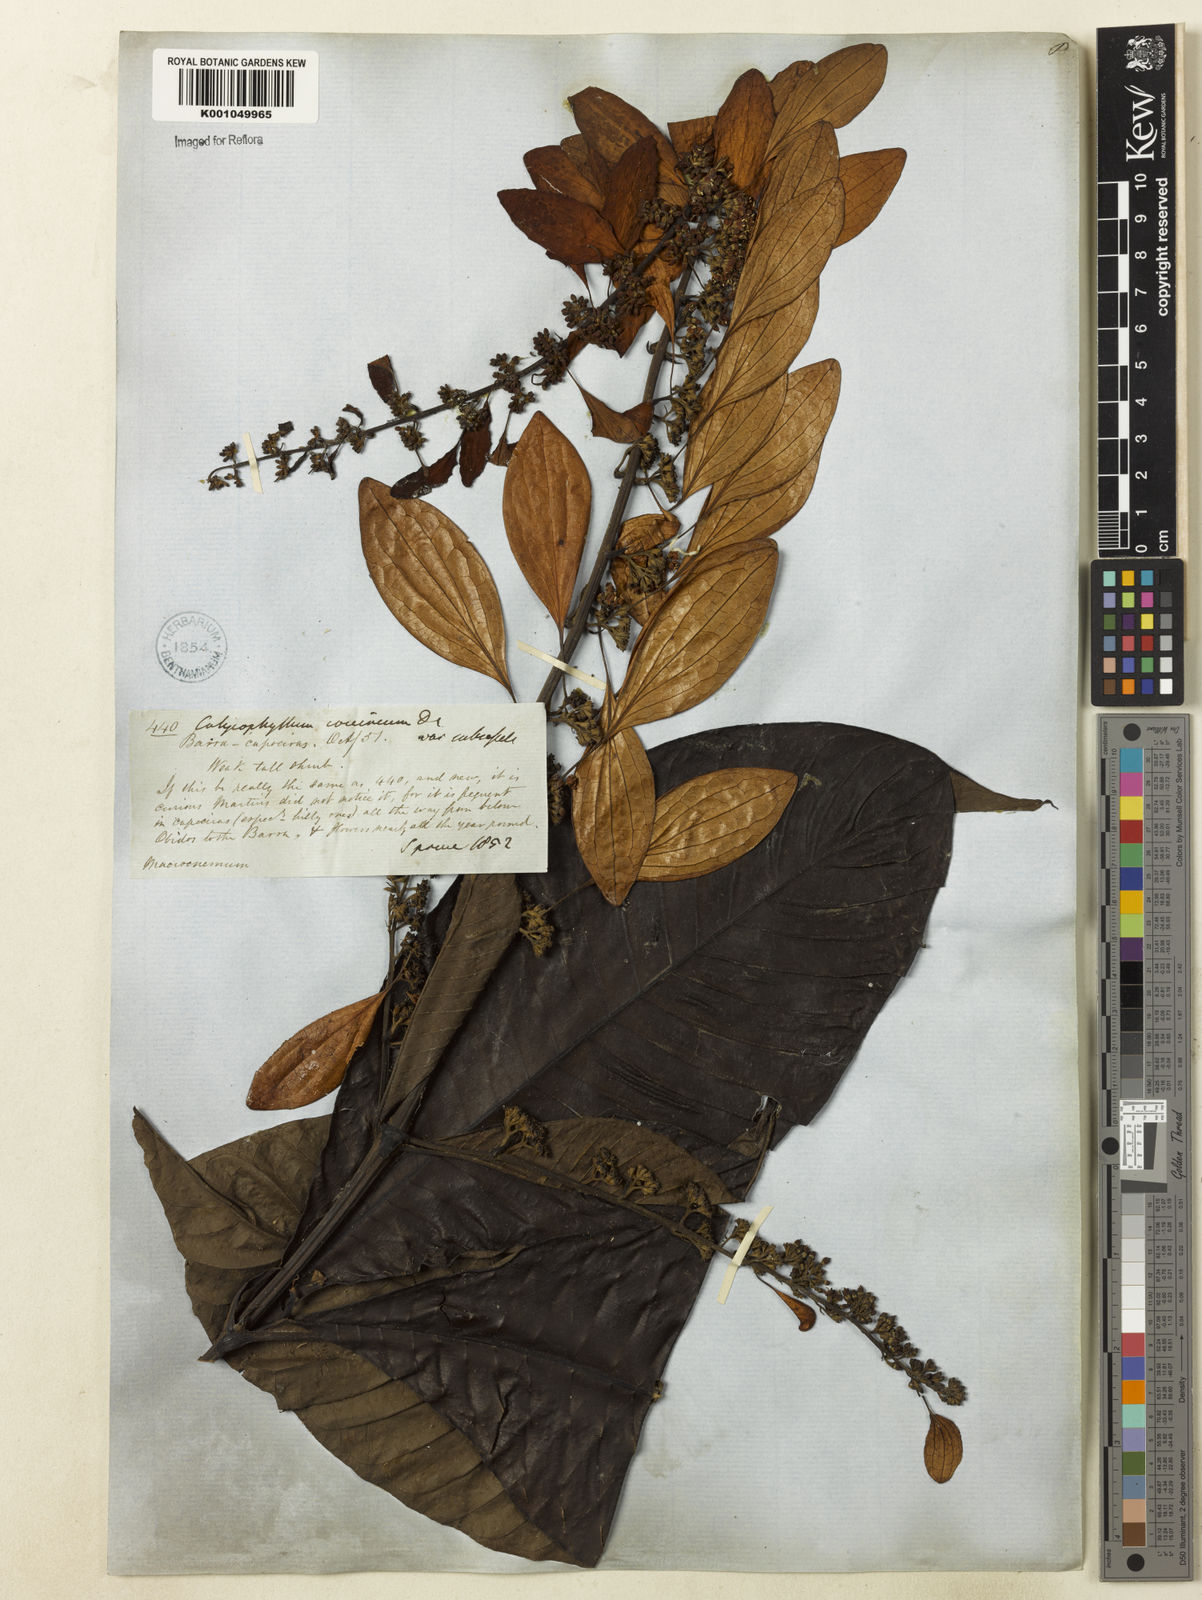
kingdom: Plantae
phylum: Tracheophyta
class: Magnoliopsida
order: Gentianales
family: Rubiaceae
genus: Warszewiczia
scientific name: Warszewiczia coccinea
